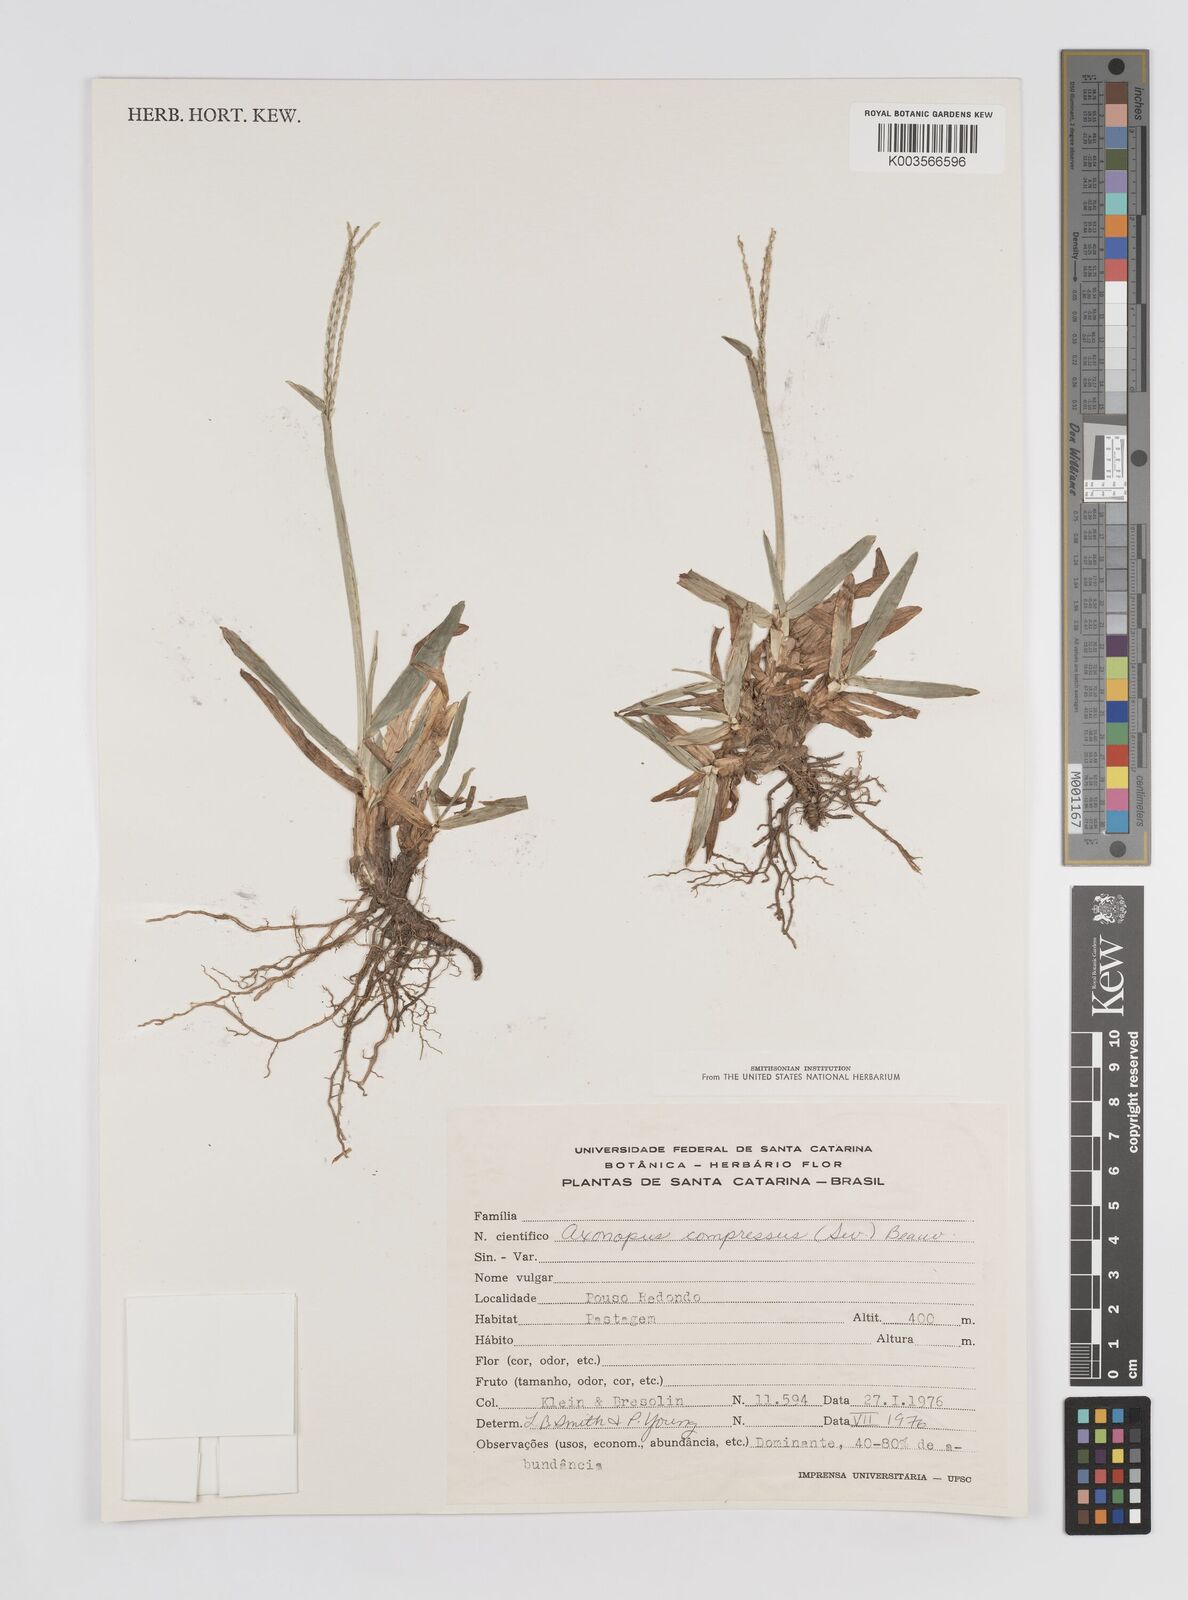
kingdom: Plantae
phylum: Tracheophyta
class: Liliopsida
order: Poales
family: Poaceae
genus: Axonopus
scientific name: Axonopus compressus
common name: American carpet grass
